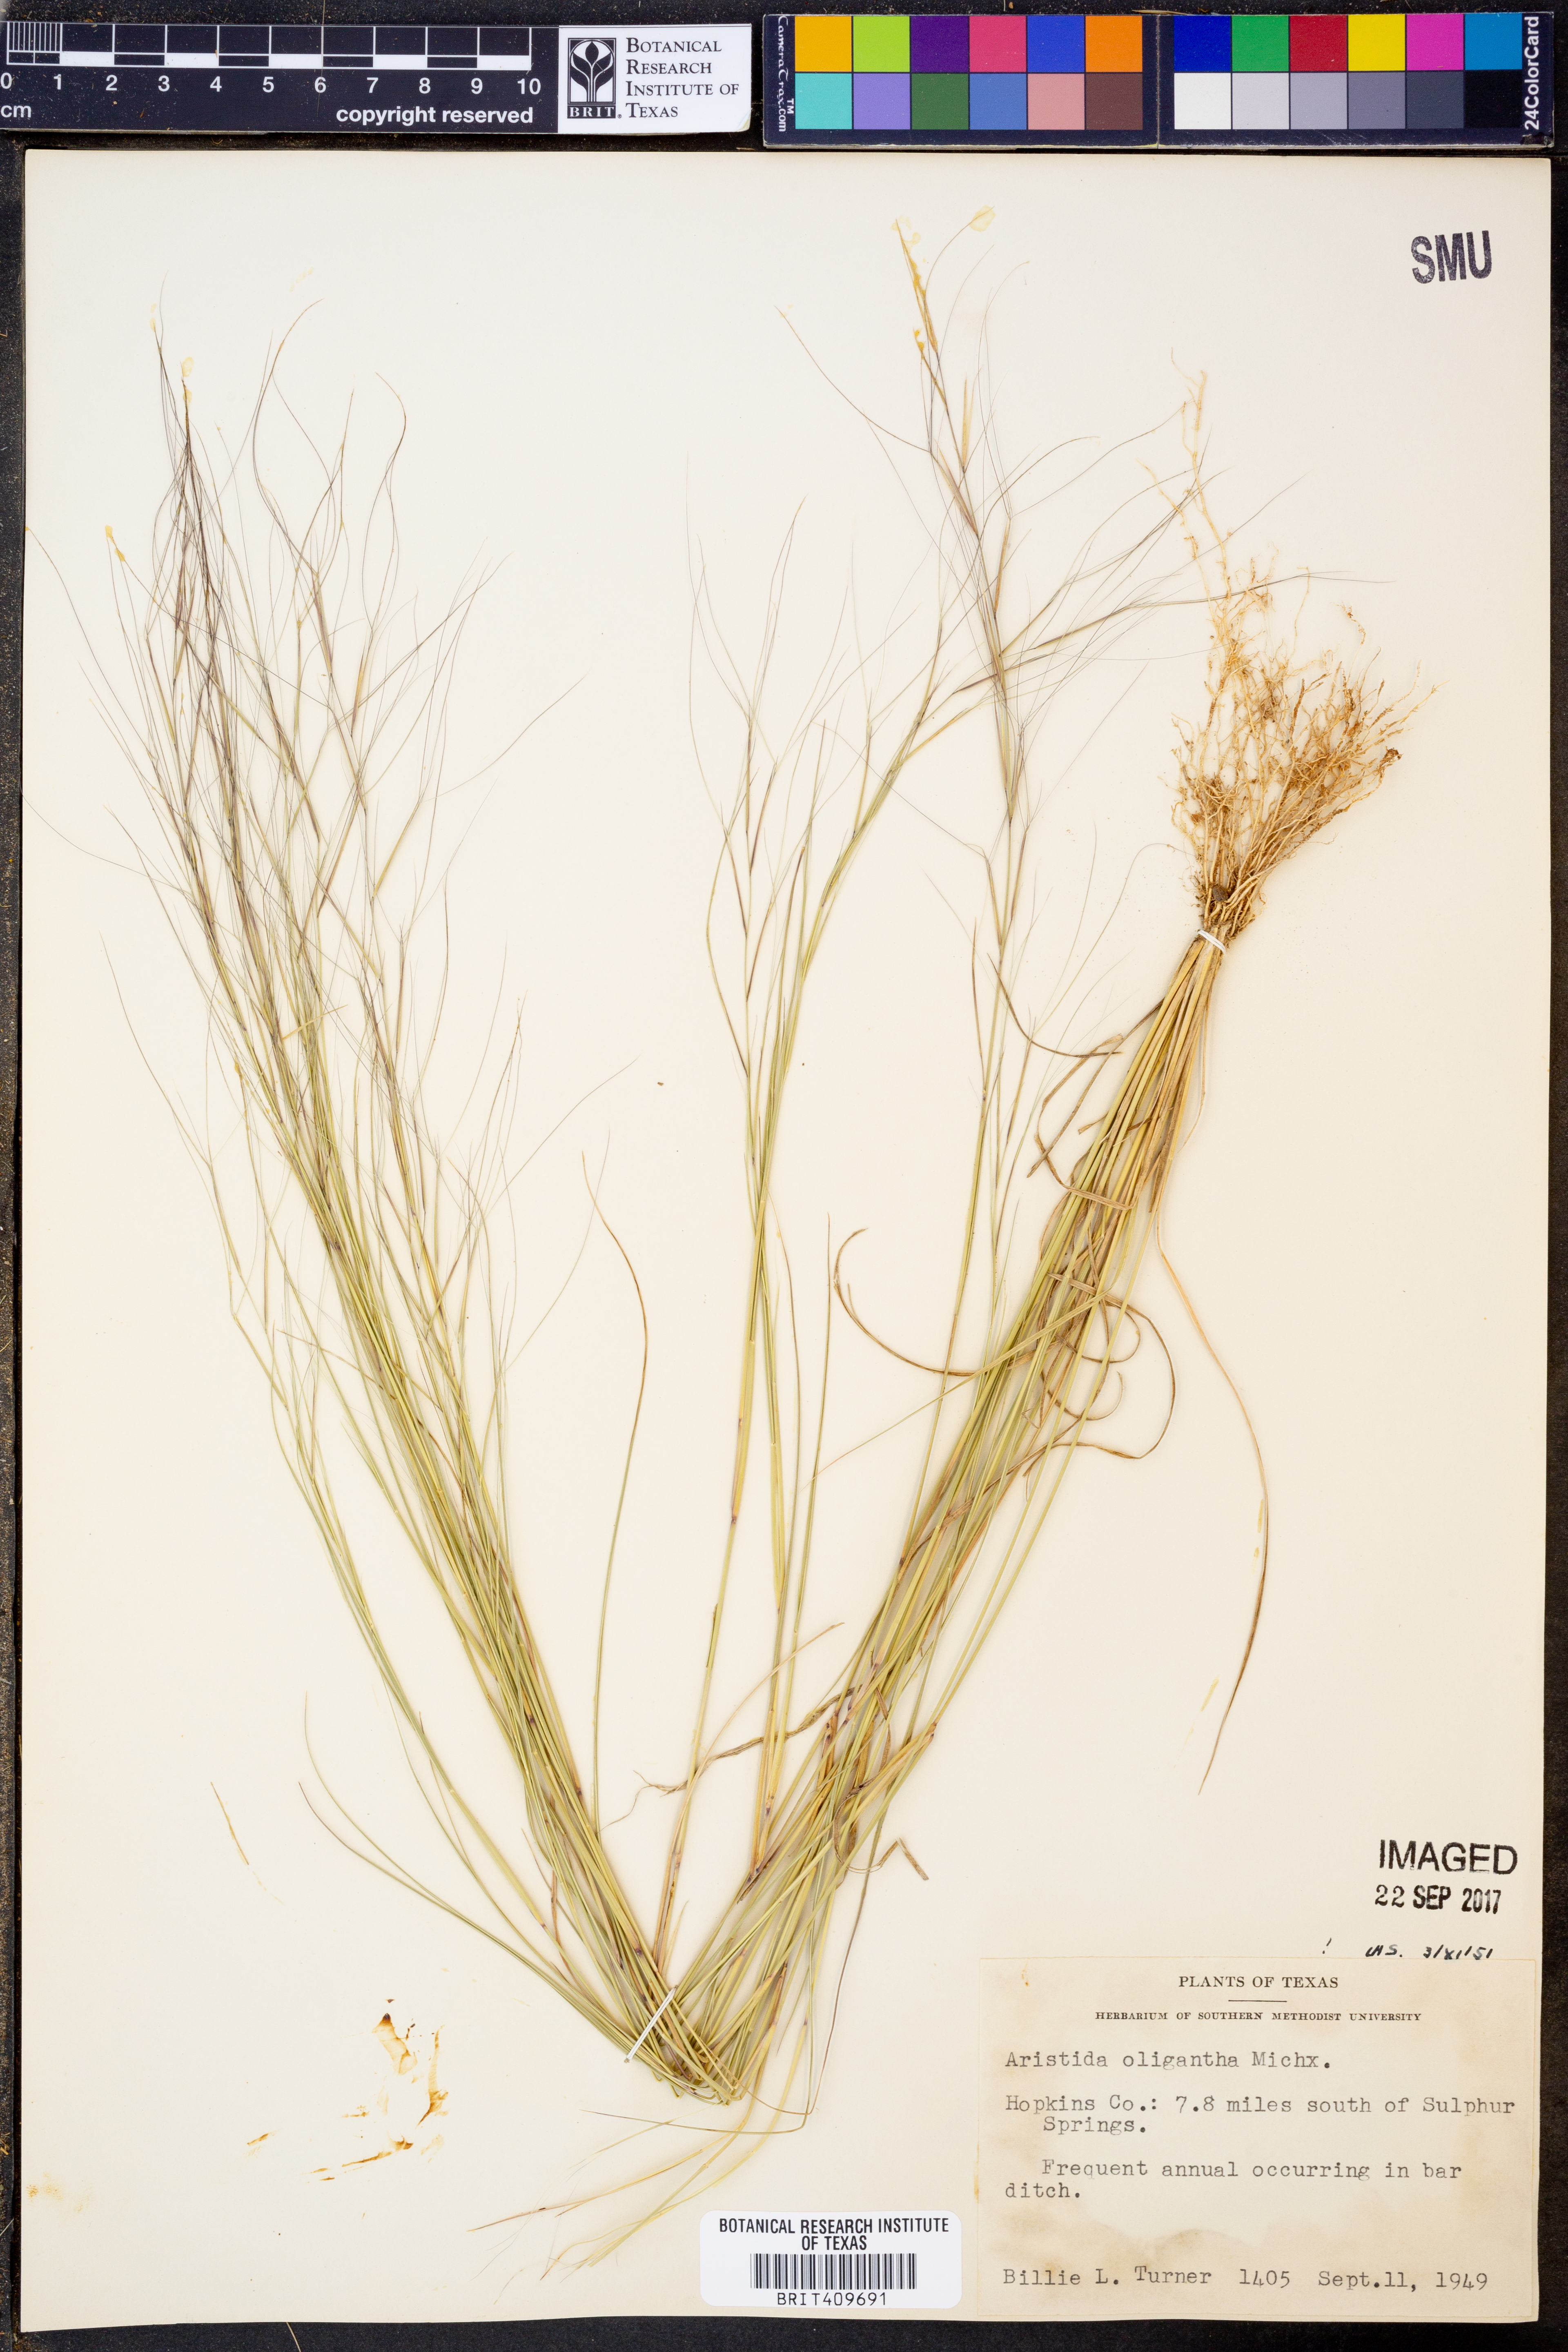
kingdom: Plantae
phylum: Tracheophyta
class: Liliopsida
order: Poales
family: Poaceae
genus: Aristida
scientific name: Aristida oligantha
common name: Few-flowered aristida
